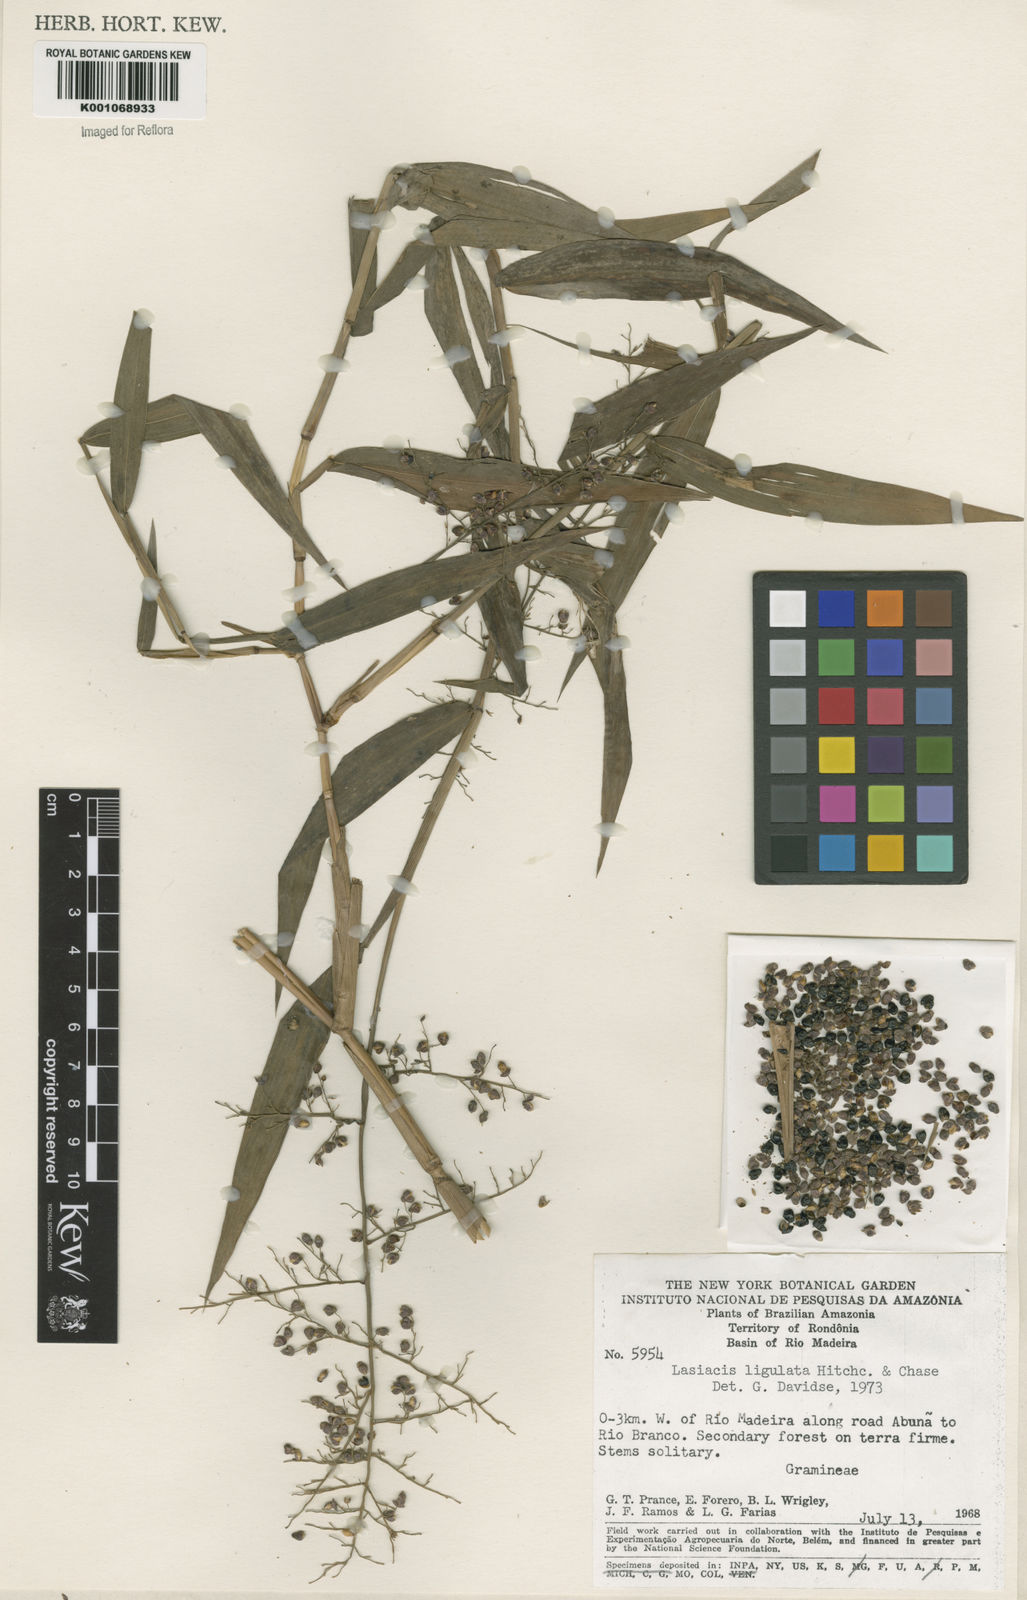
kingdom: Plantae
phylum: Tracheophyta
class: Liliopsida
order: Poales
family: Poaceae
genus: Lasiacis
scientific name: Lasiacis ligulata
